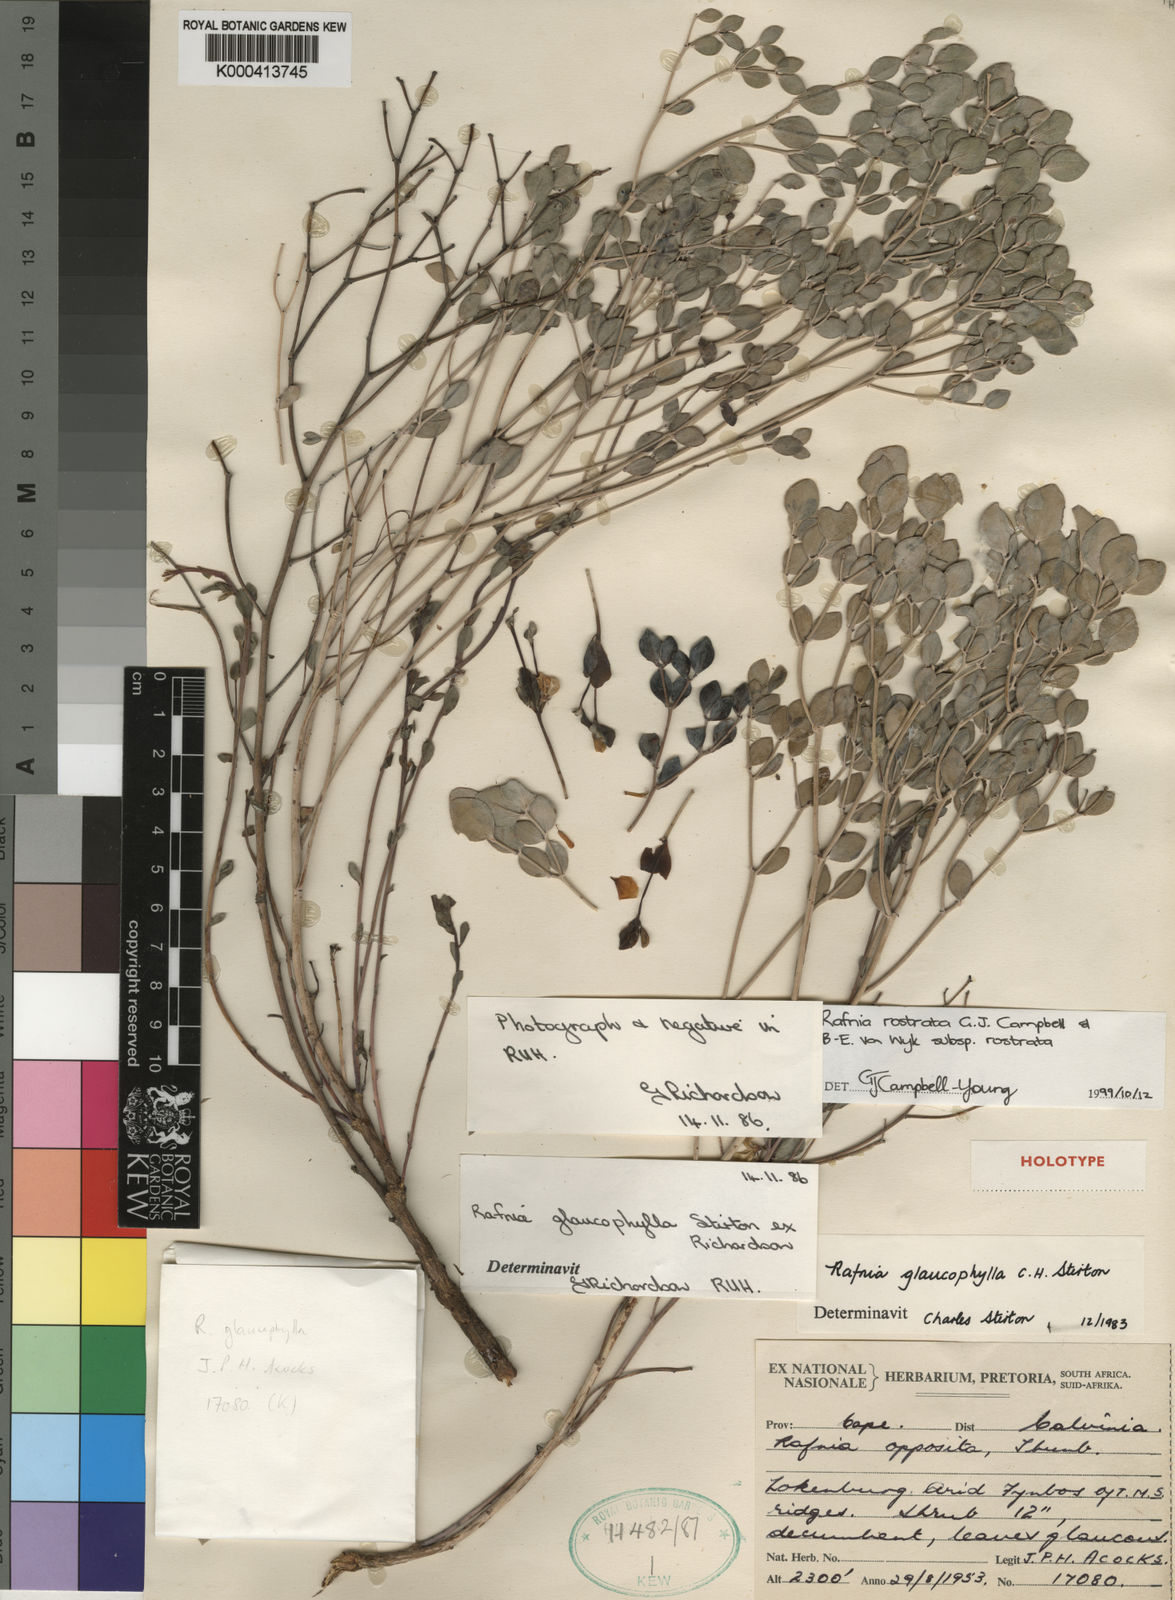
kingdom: Plantae
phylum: Tracheophyta
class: Magnoliopsida
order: Fabales
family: Fabaceae
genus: Rafnia
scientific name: Rafnia rostrata
